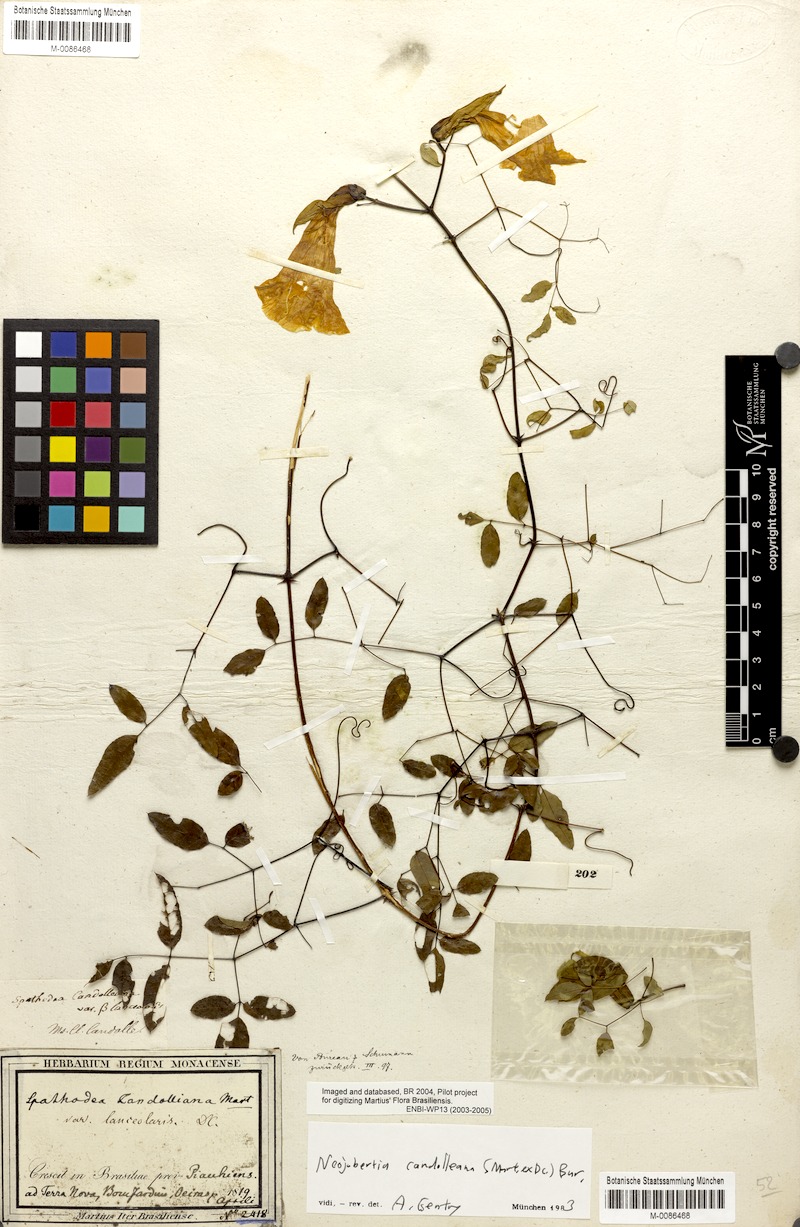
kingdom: Plantae
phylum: Tracheophyta
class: Magnoliopsida
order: Lamiales
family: Bignoniaceae
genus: Adenocalymma
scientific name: Adenocalymma candolleanum
